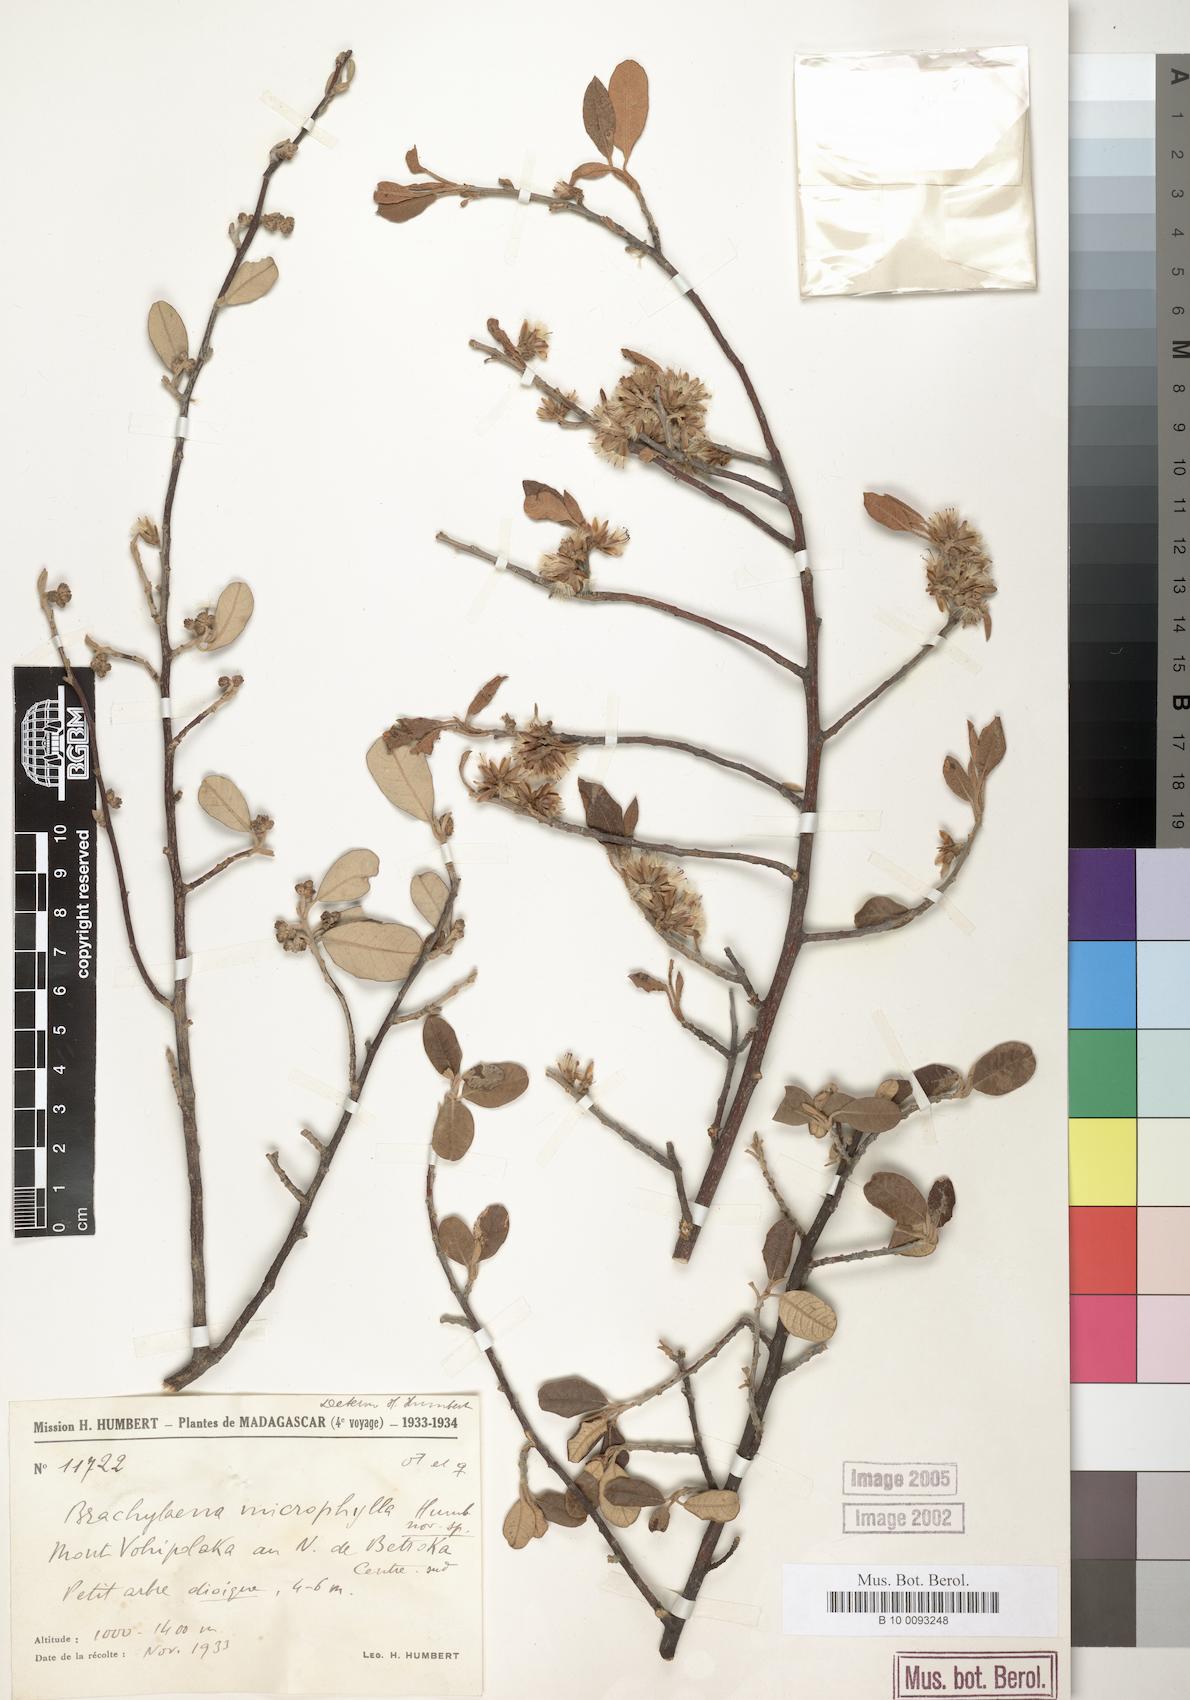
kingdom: Plantae
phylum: Tracheophyta
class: Magnoliopsida
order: Asterales
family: Asteraceae
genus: Brachylaena
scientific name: Brachylaena microphylla
